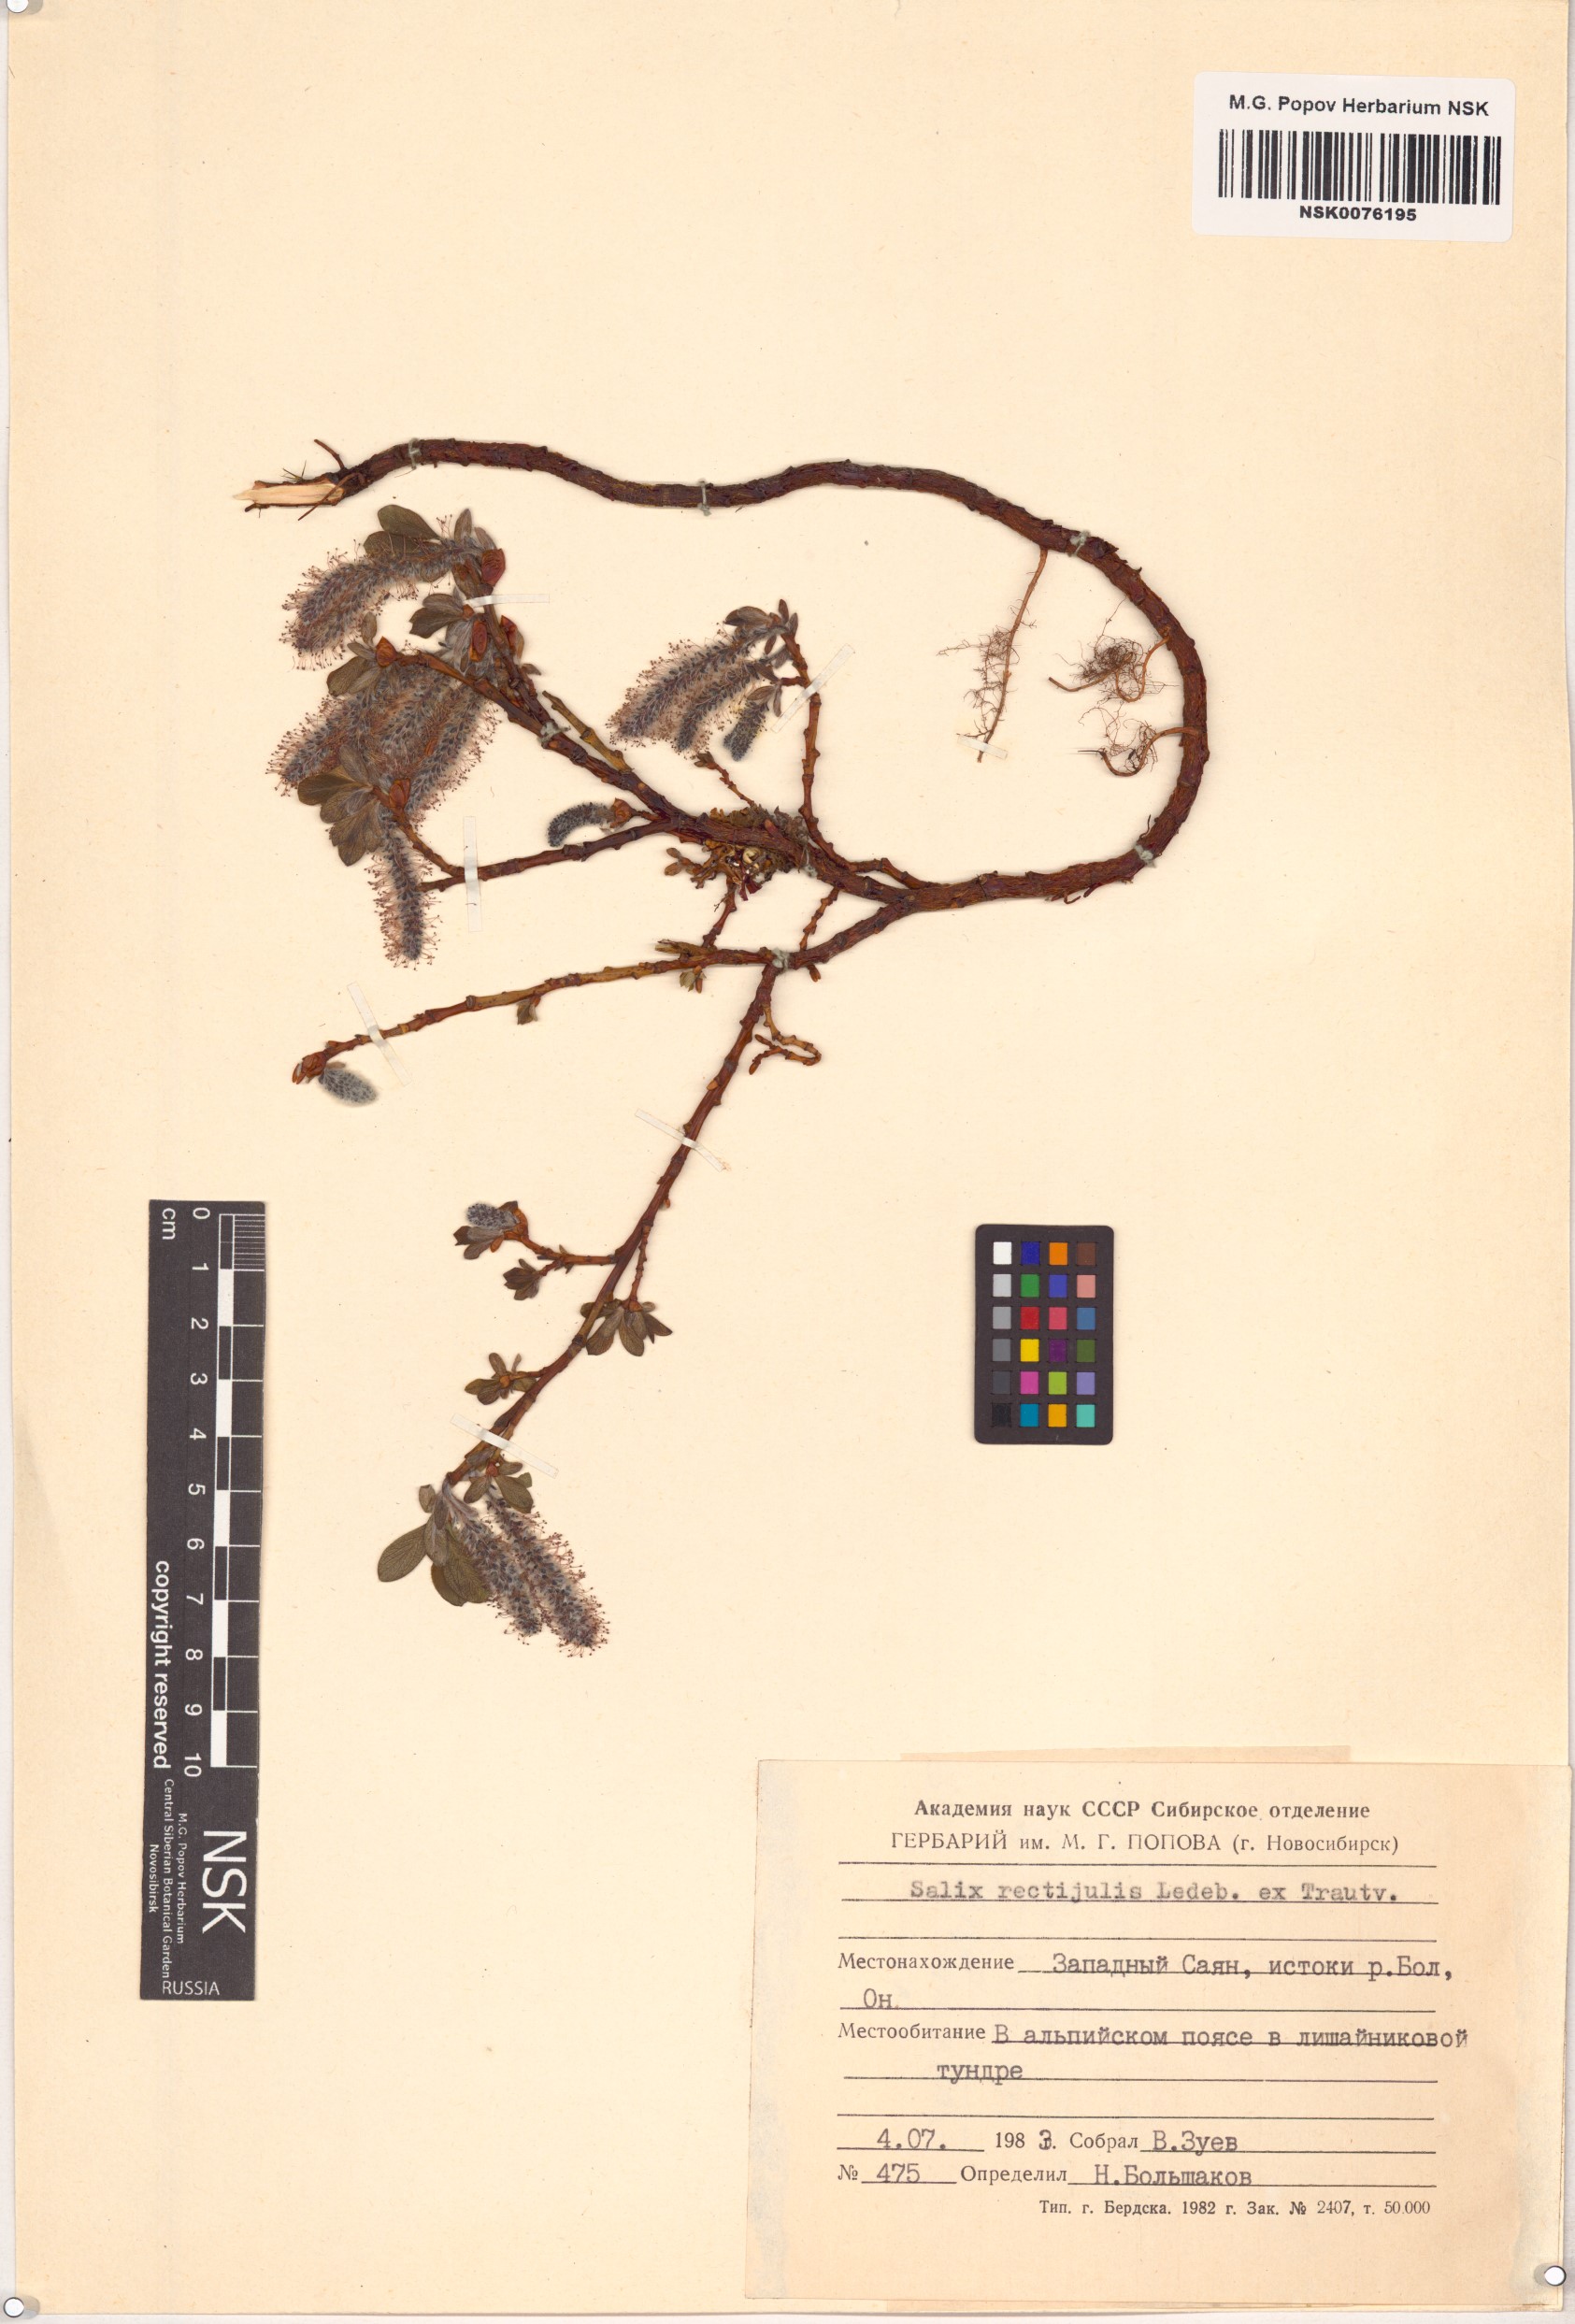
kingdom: Plantae
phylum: Tracheophyta
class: Magnoliopsida
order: Malpighiales
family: Salicaceae
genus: Salix
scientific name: Salix rectijulis
